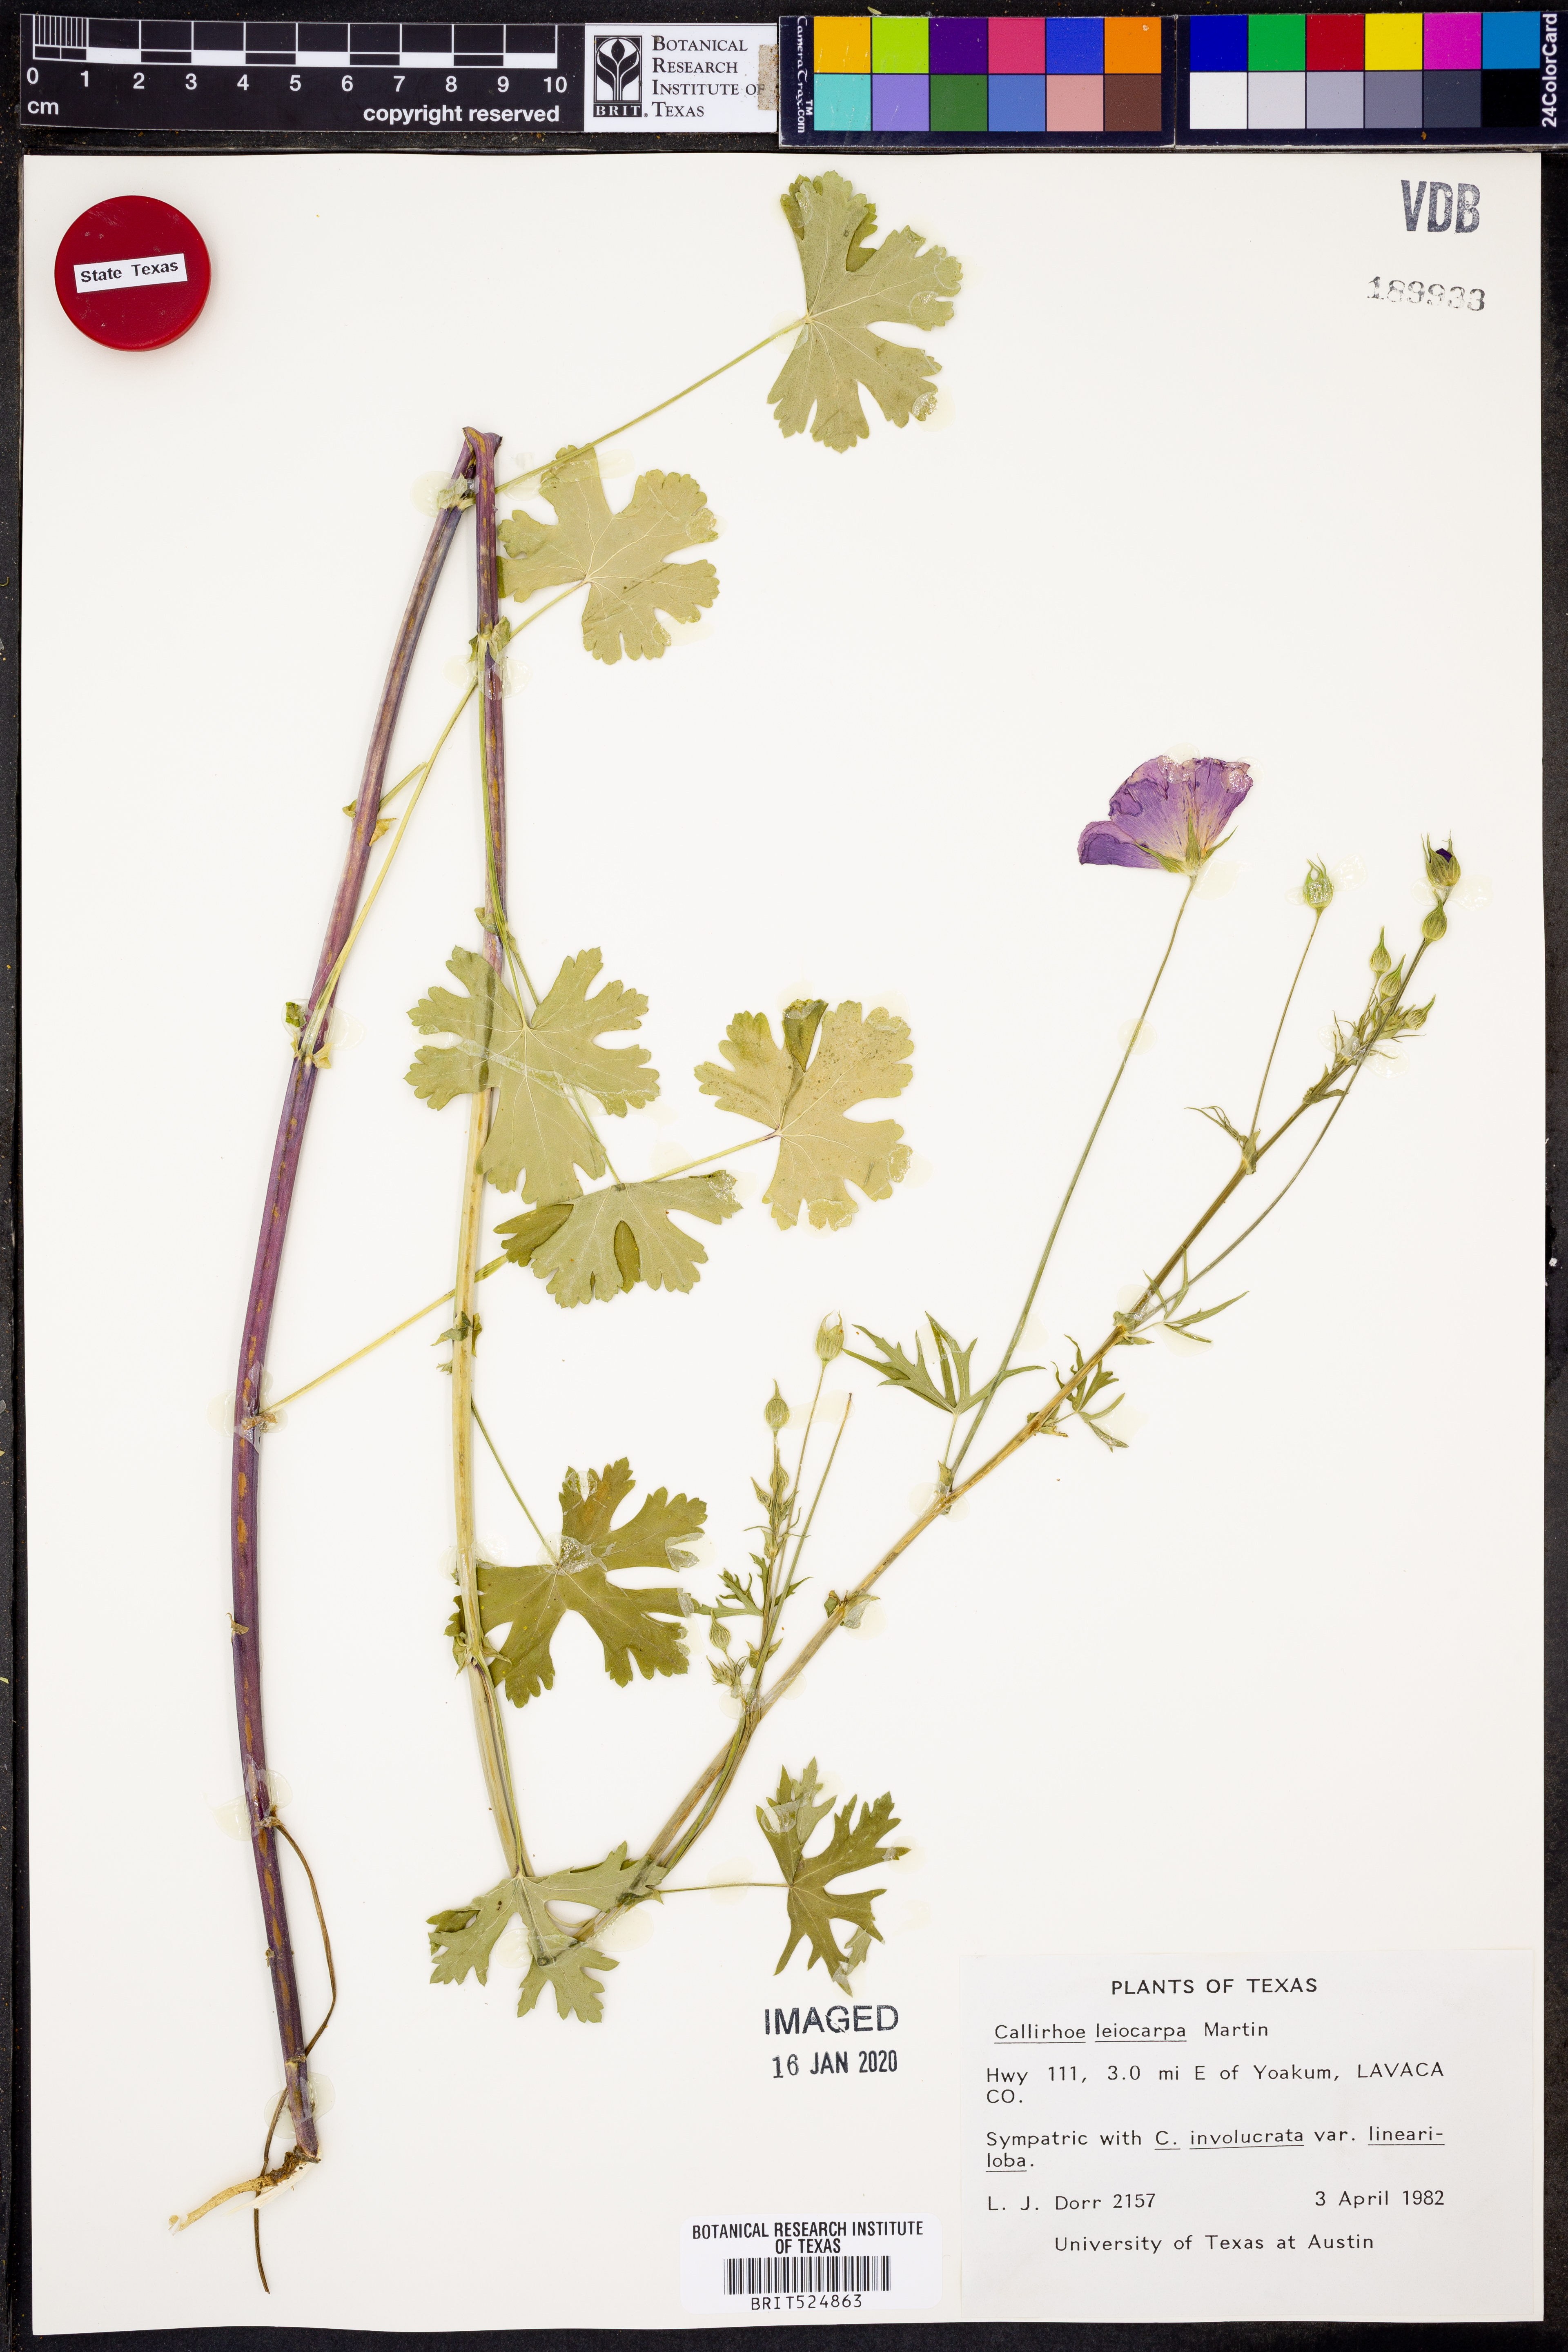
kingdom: Plantae
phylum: Tracheophyta
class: Magnoliopsida
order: Malvales
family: Malvaceae
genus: Callirhoe
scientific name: Callirhoe leiocarpa
